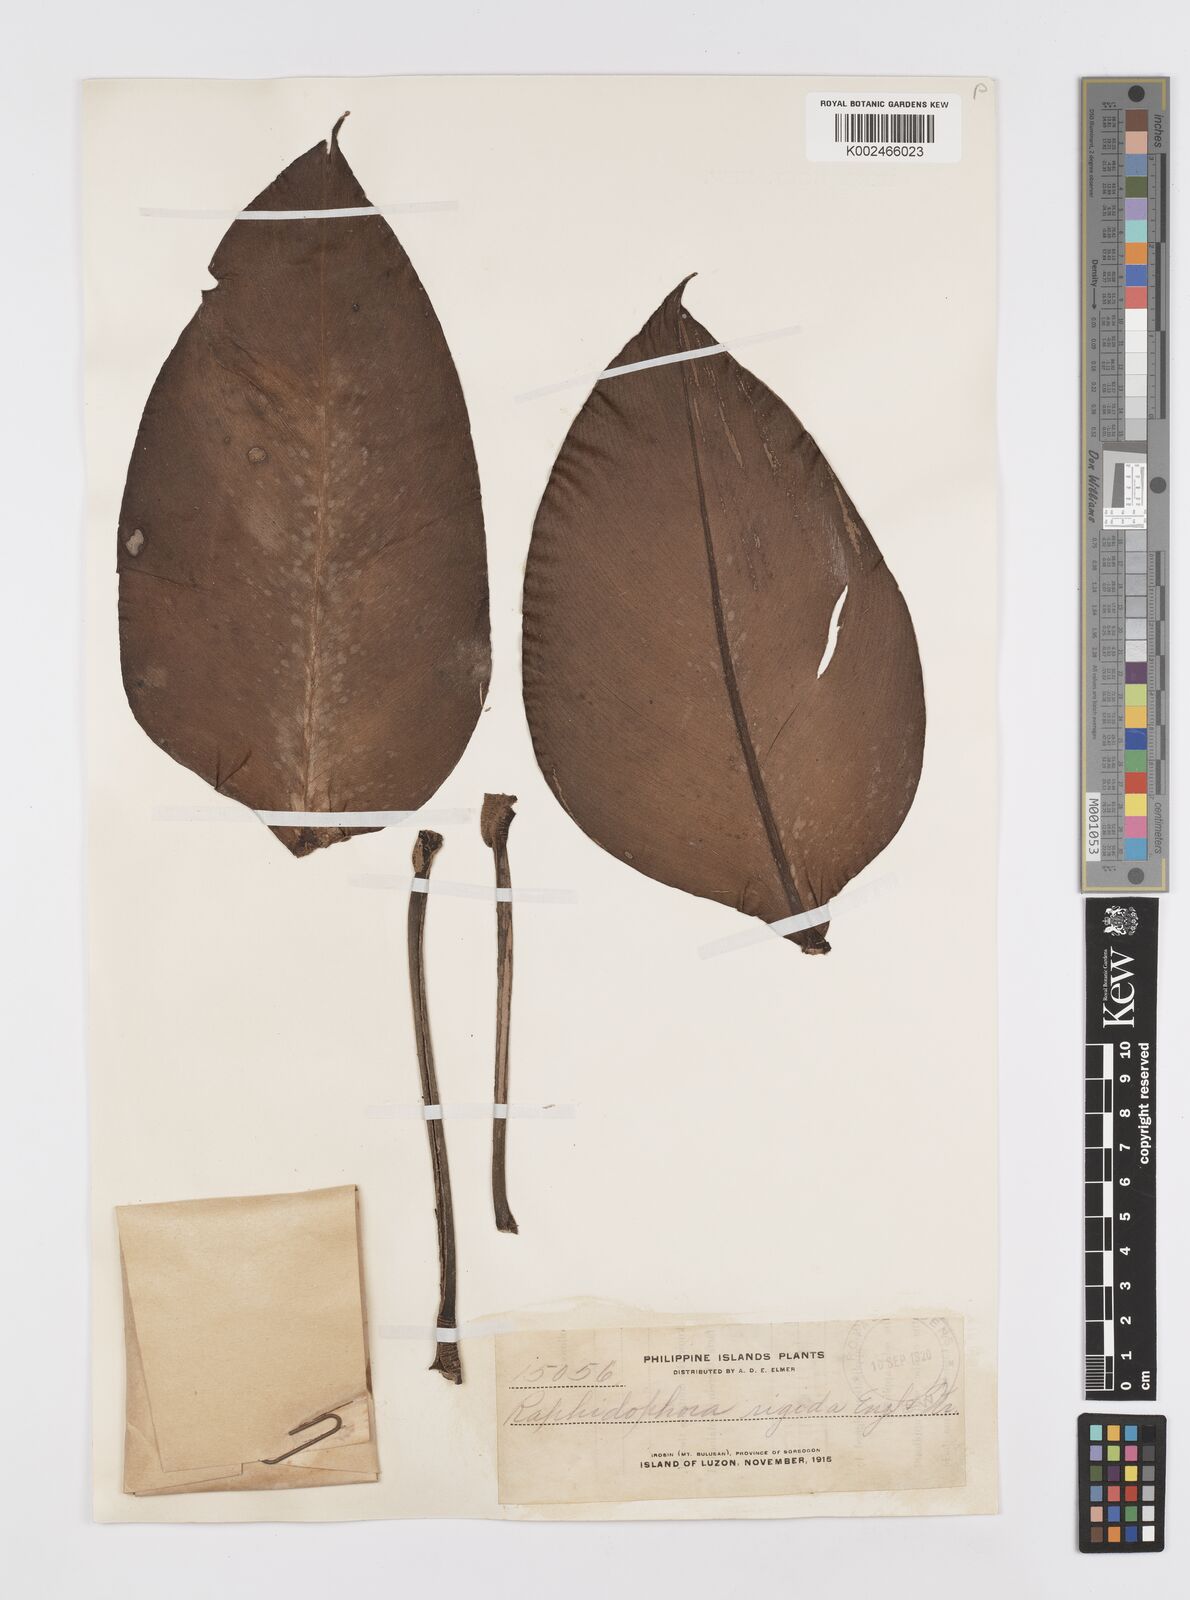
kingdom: Plantae
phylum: Tracheophyta
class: Liliopsida
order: Alismatales
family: Araceae
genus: Rhaphidophora
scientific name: Rhaphidophora philippinensis
